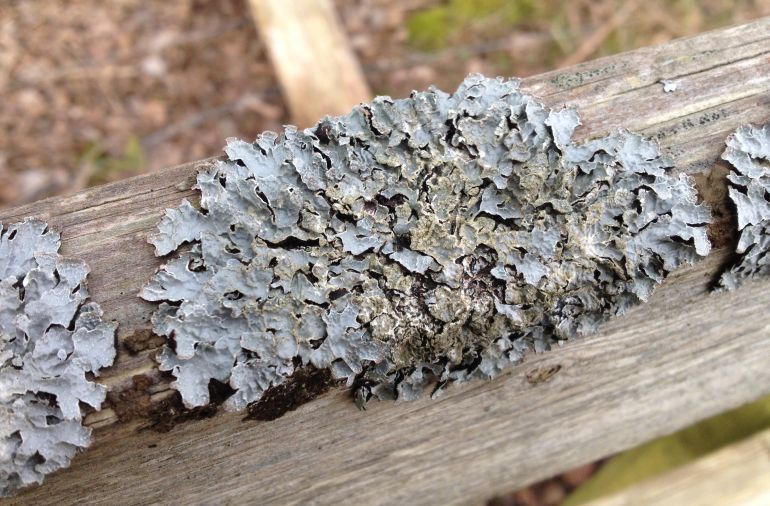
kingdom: Fungi
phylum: Ascomycota
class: Lecanoromycetes
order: Lecanorales
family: Parmeliaceae
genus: Parmelia
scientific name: Parmelia sulcata
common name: rynket skållav
